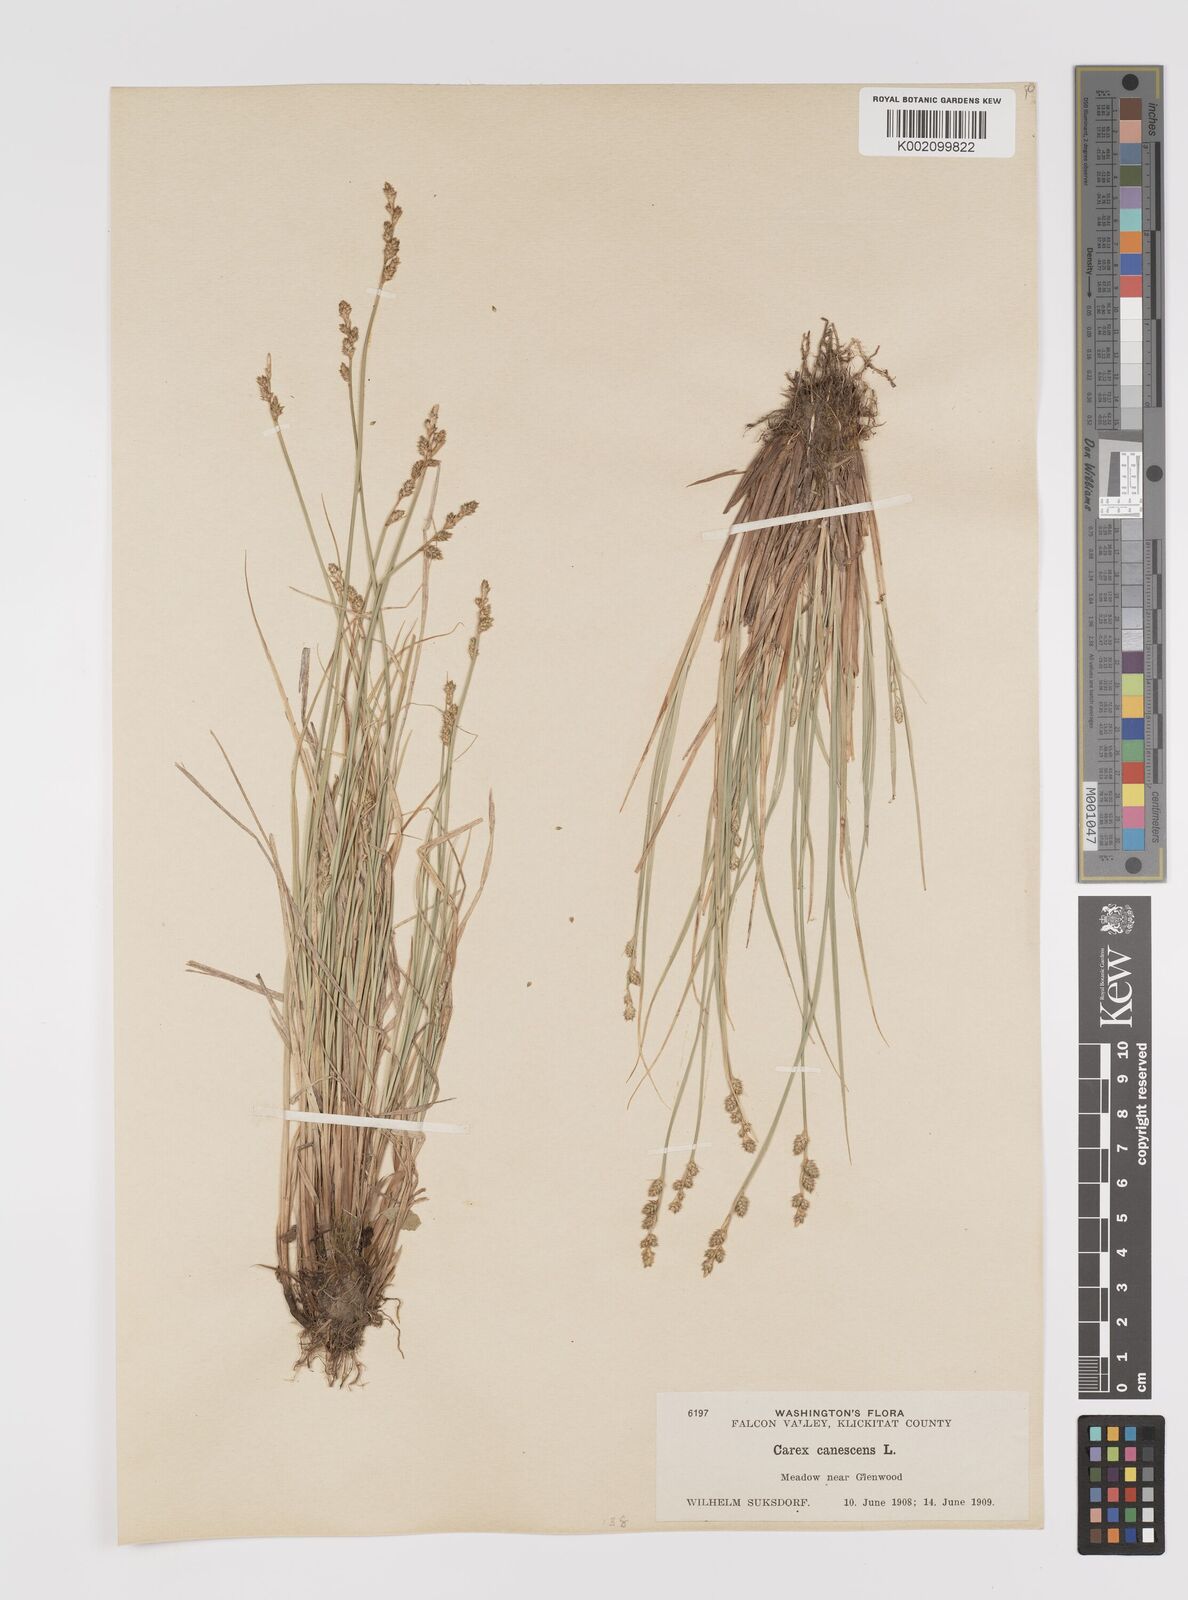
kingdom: Plantae
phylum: Tracheophyta
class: Liliopsida
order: Poales
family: Cyperaceae
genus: Carex
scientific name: Carex curta
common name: White sedge
